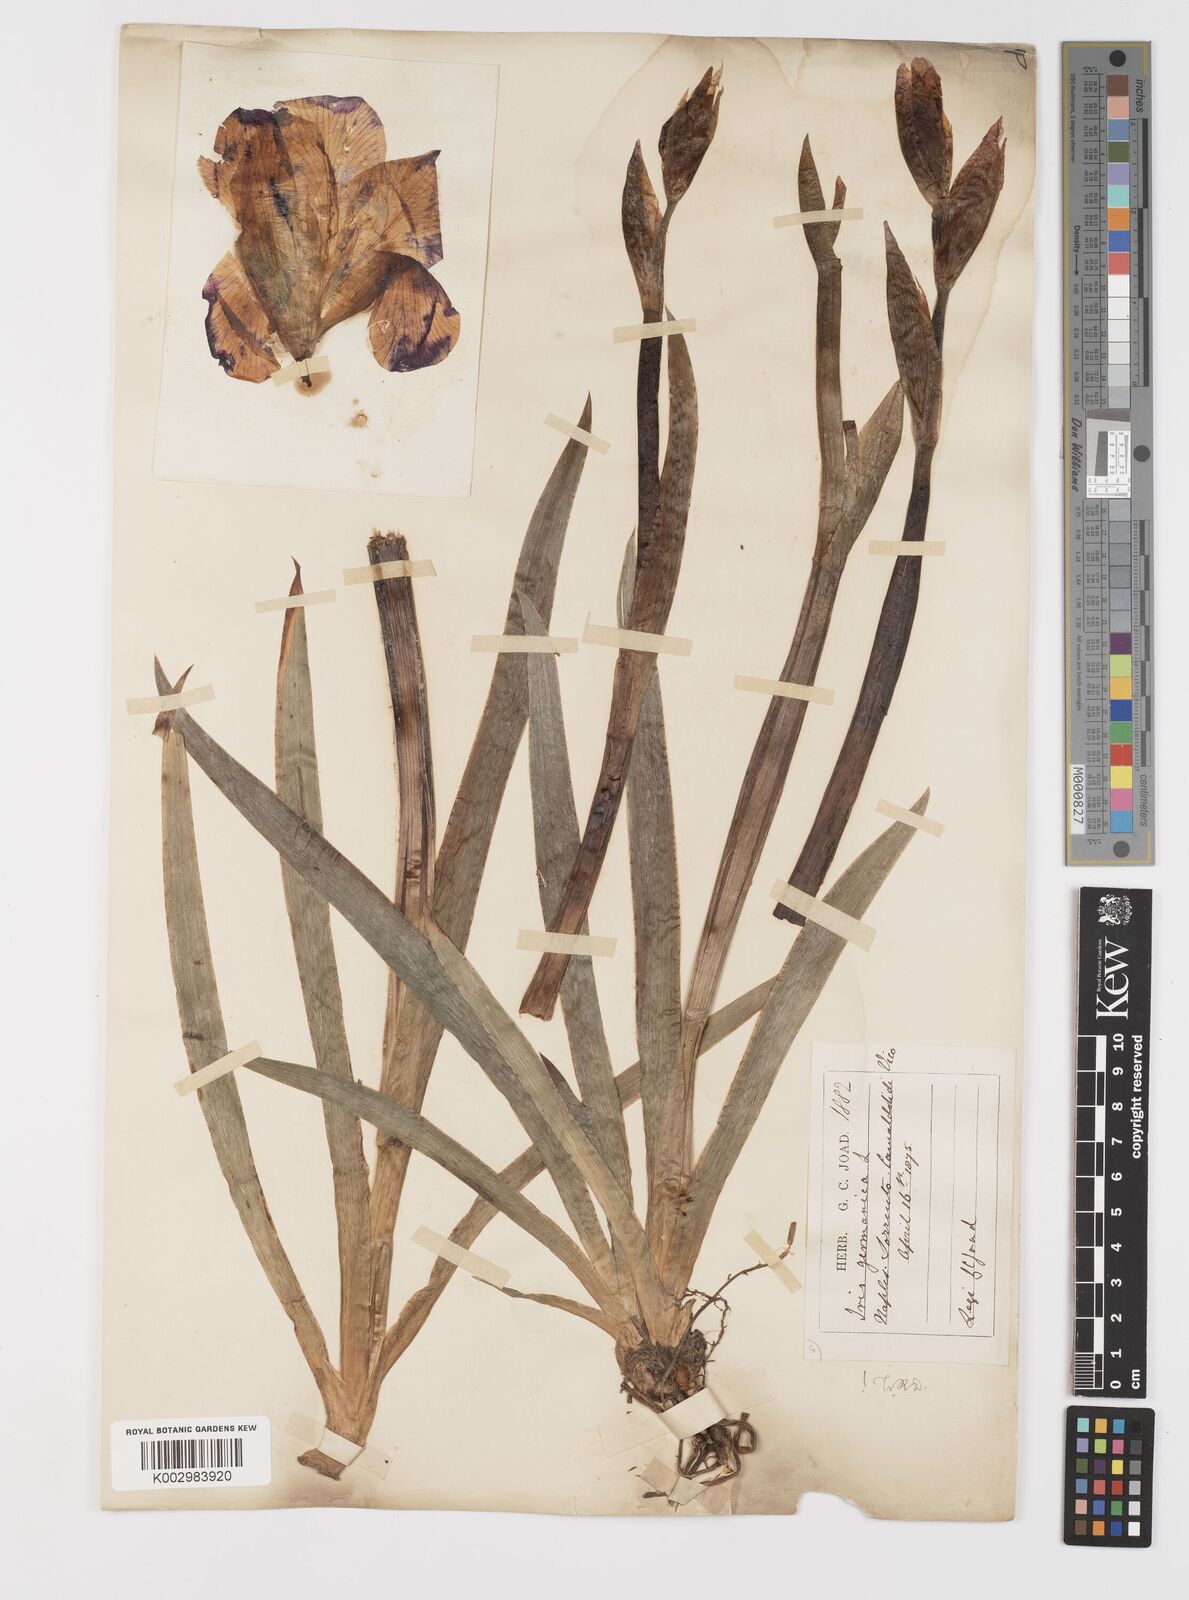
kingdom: Plantae
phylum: Tracheophyta
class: Liliopsida
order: Asparagales
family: Iridaceae
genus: Iris
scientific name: Iris germanica
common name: German iris
